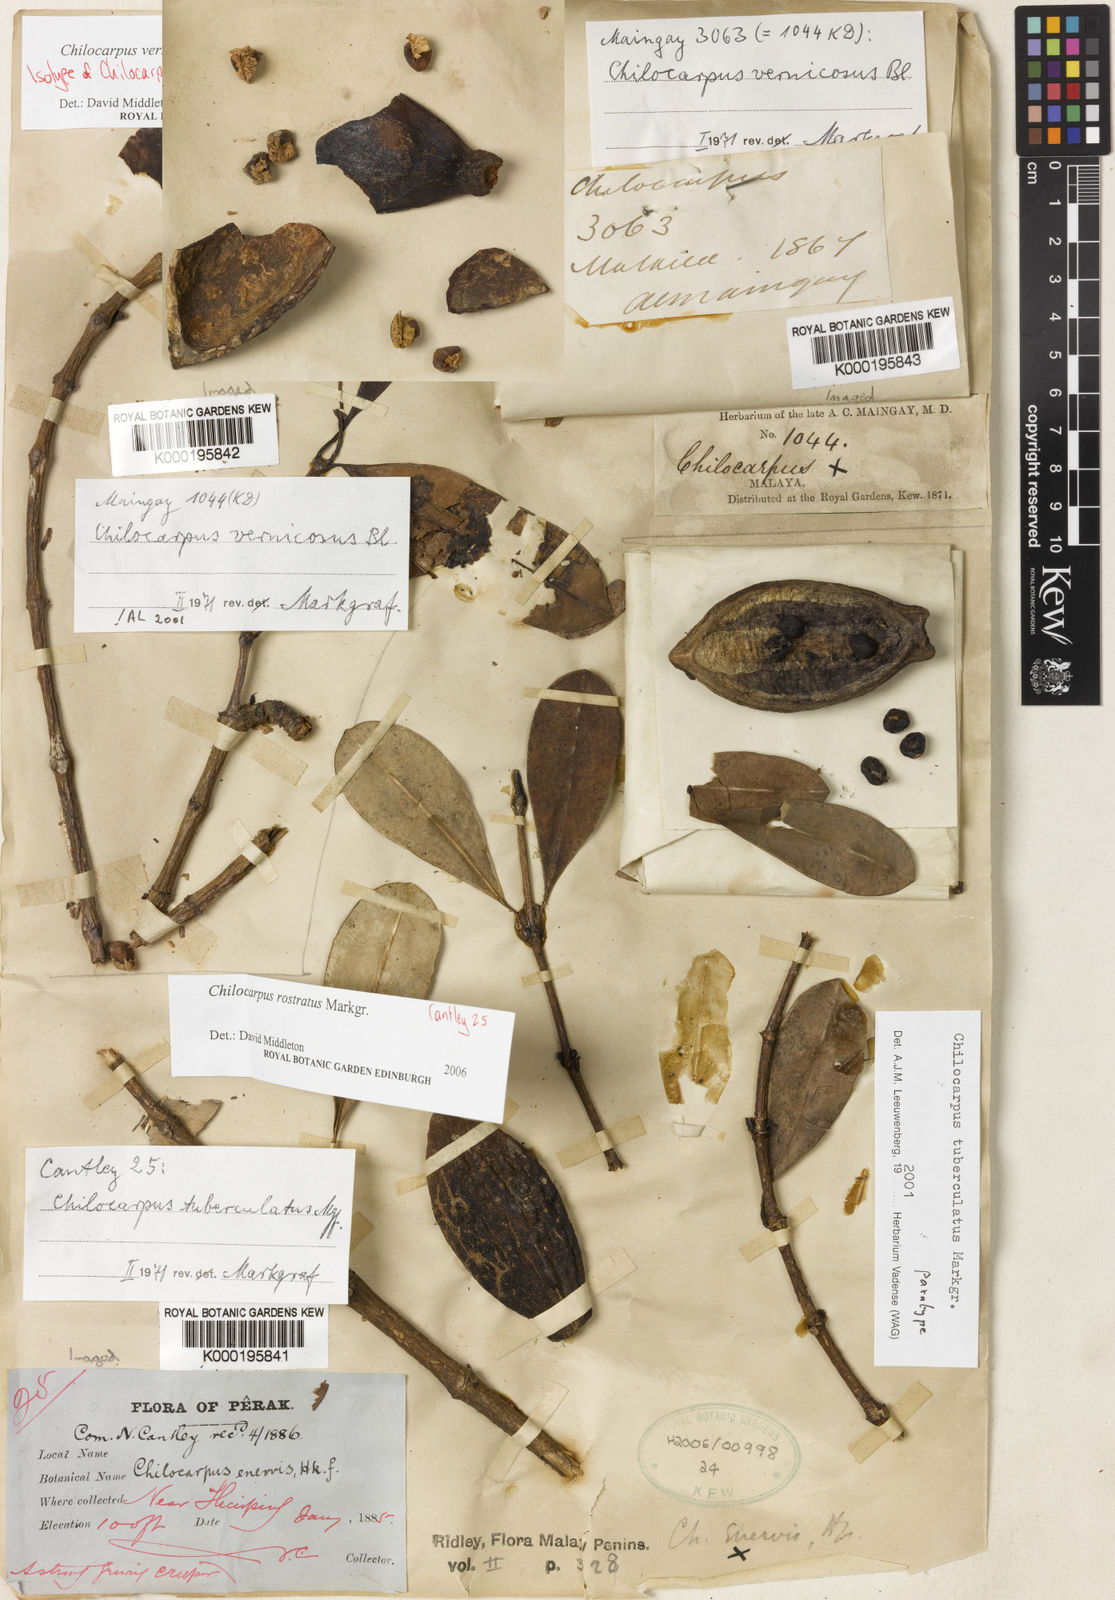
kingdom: Plantae
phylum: Tracheophyta
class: Magnoliopsida
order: Gentianales
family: Apocynaceae
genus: Chilocarpus
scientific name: Chilocarpus vernicosus
